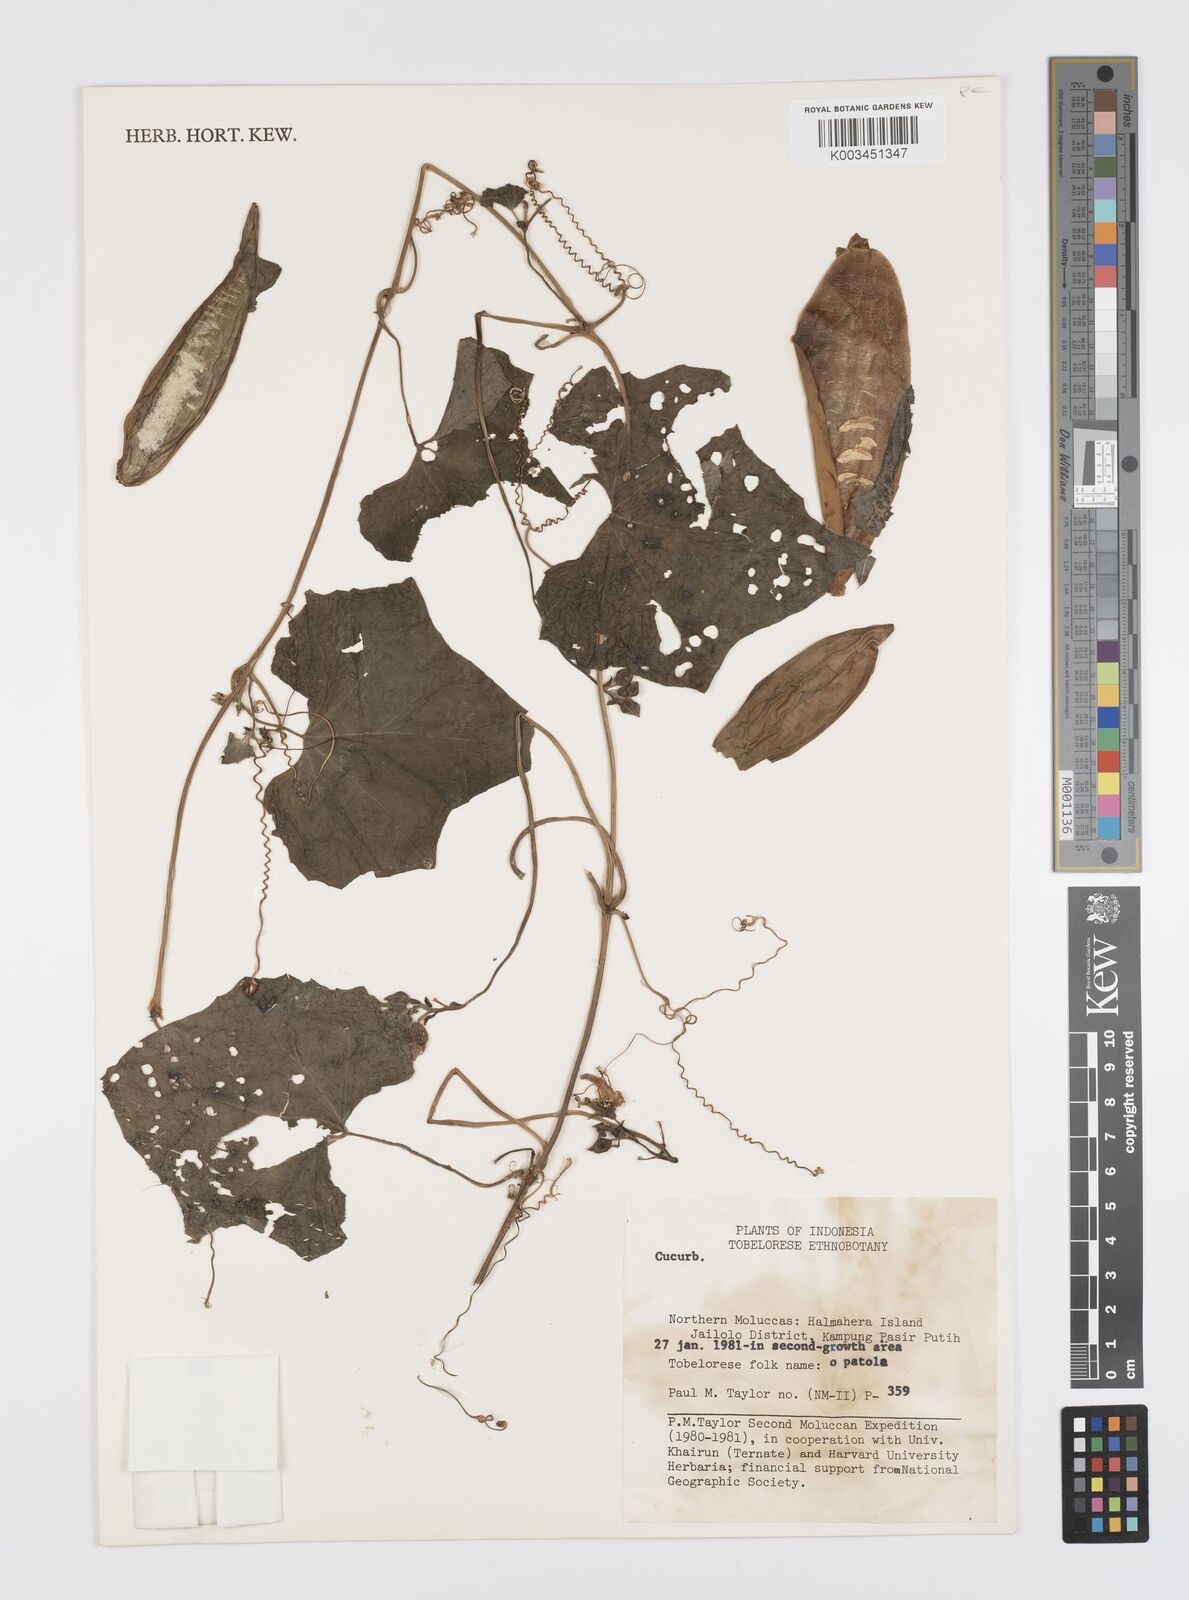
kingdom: Plantae
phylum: Tracheophyta
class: Magnoliopsida
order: Cucurbitales
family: Cucurbitaceae
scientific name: Cucurbitaceae
